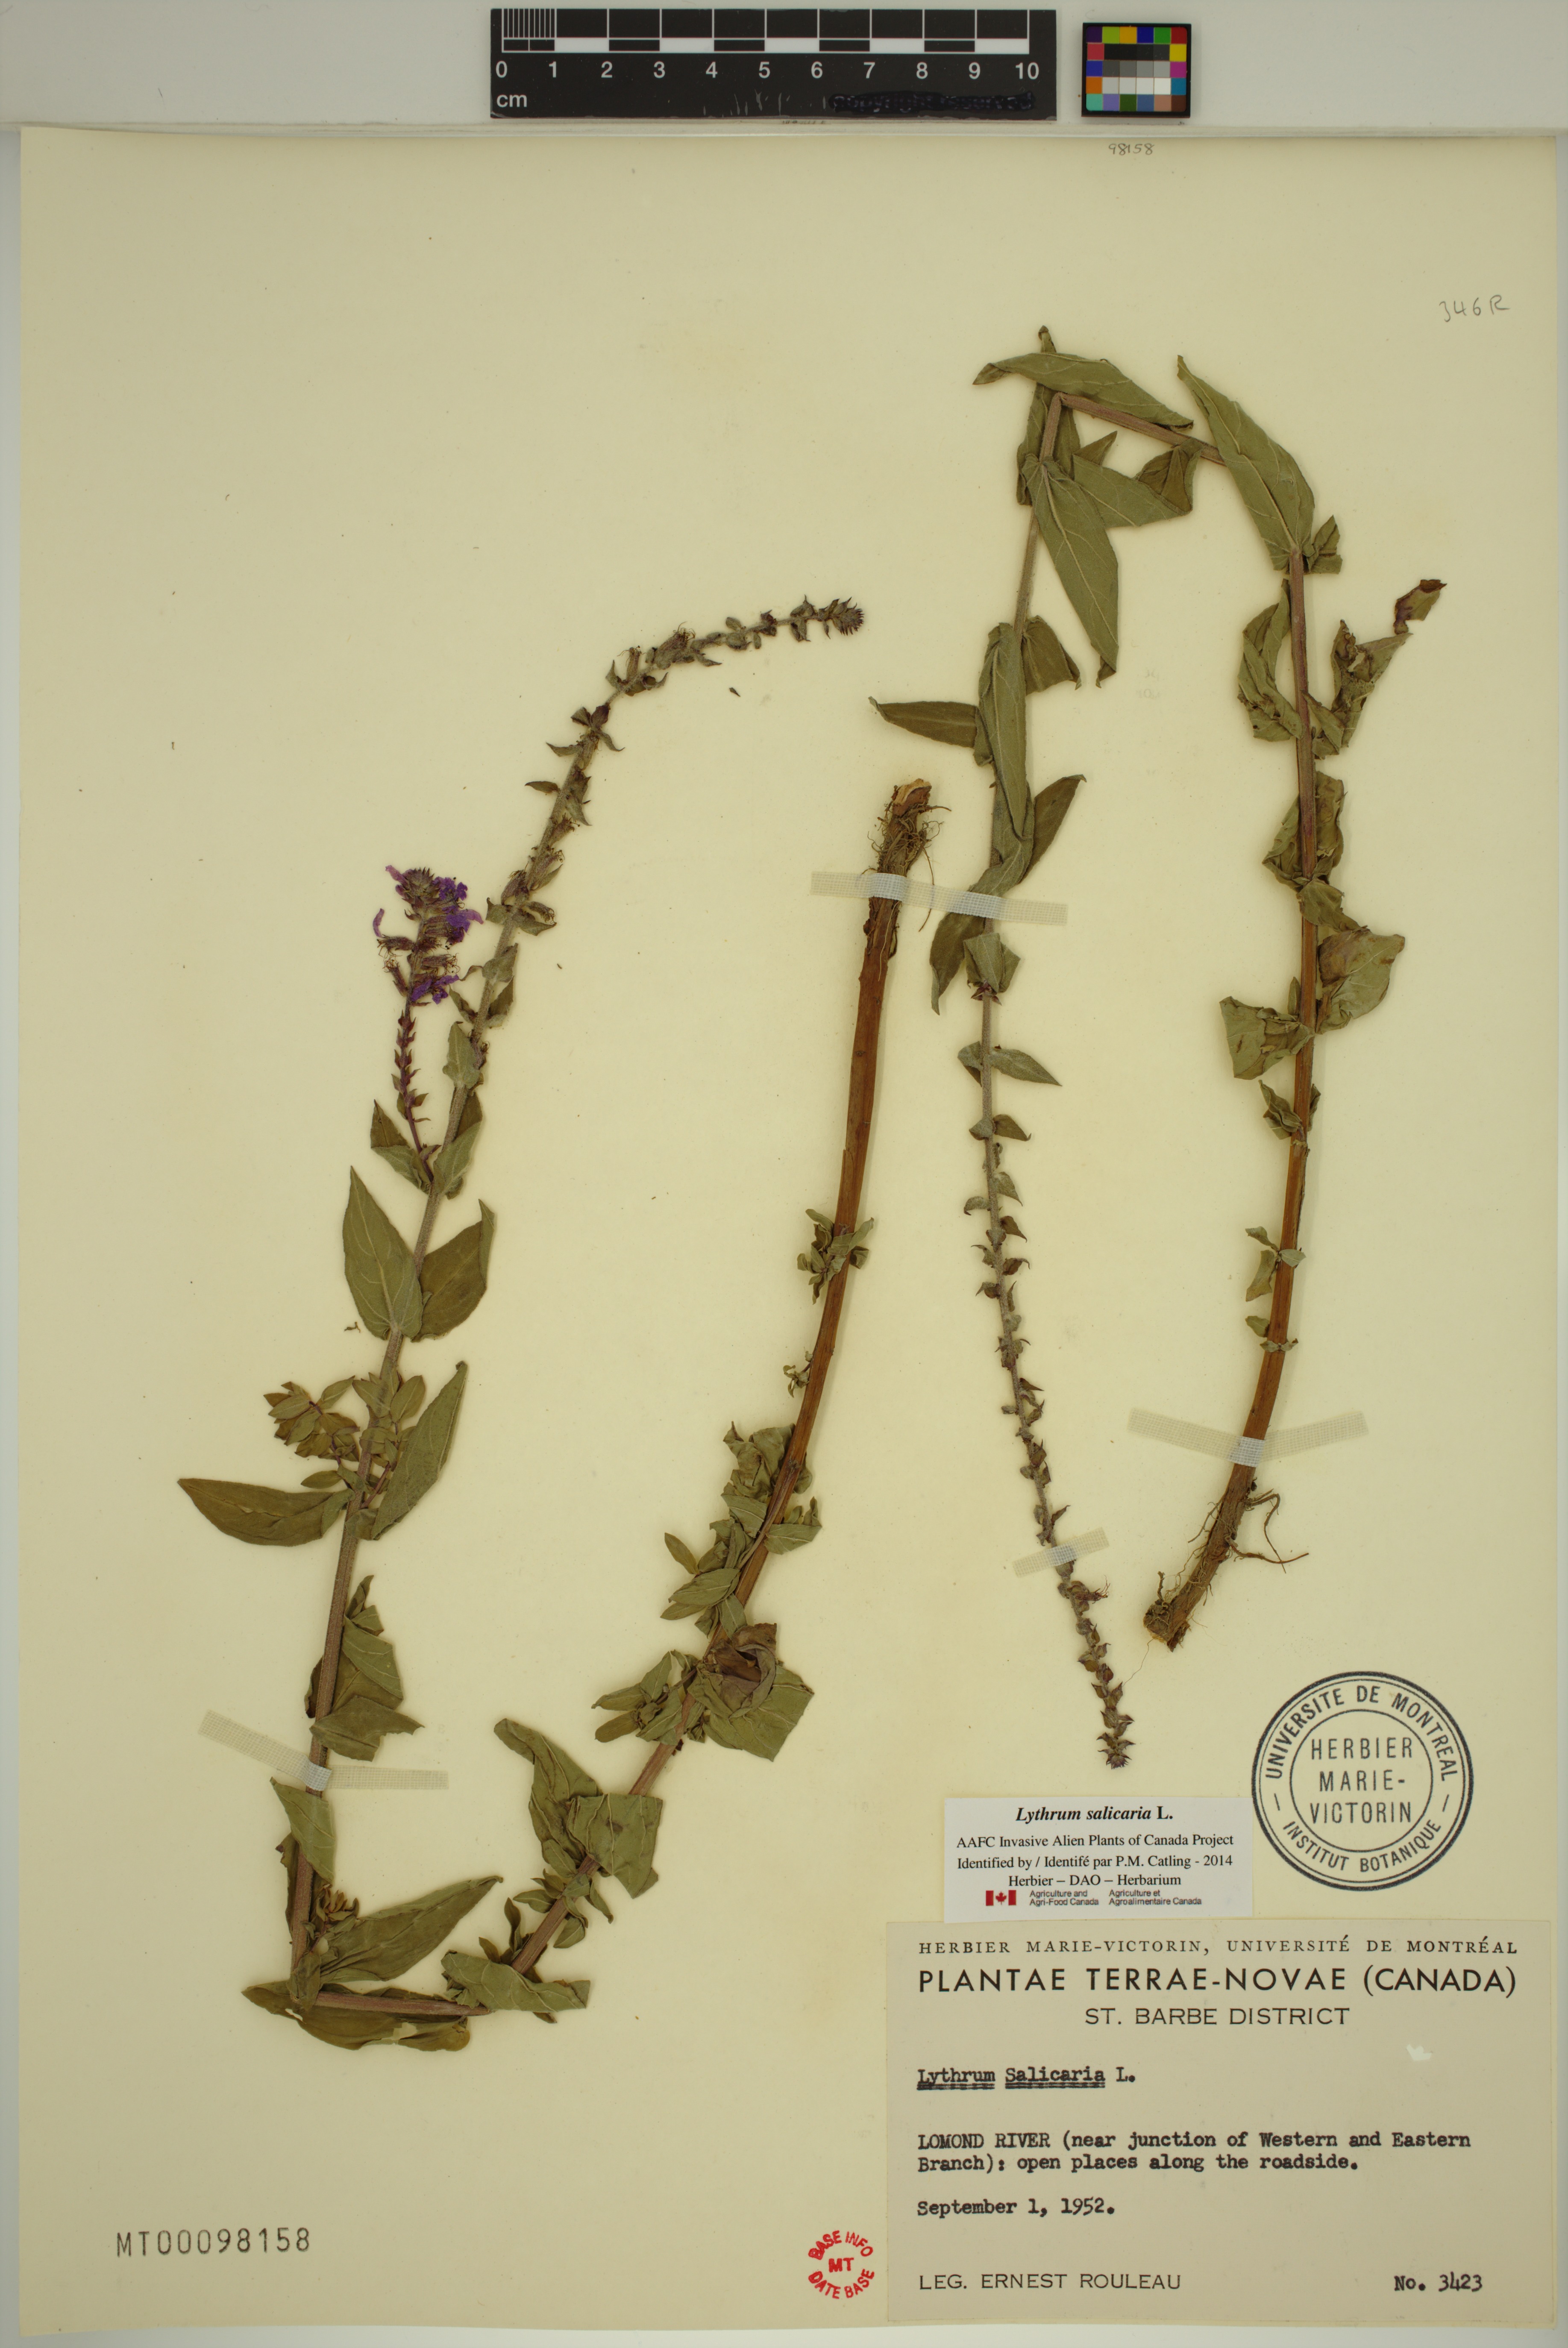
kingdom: Plantae
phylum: Tracheophyta
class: Magnoliopsida
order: Myrtales
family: Lythraceae
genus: Lythrum
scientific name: Lythrum salicaria
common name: Purple loosestrife
